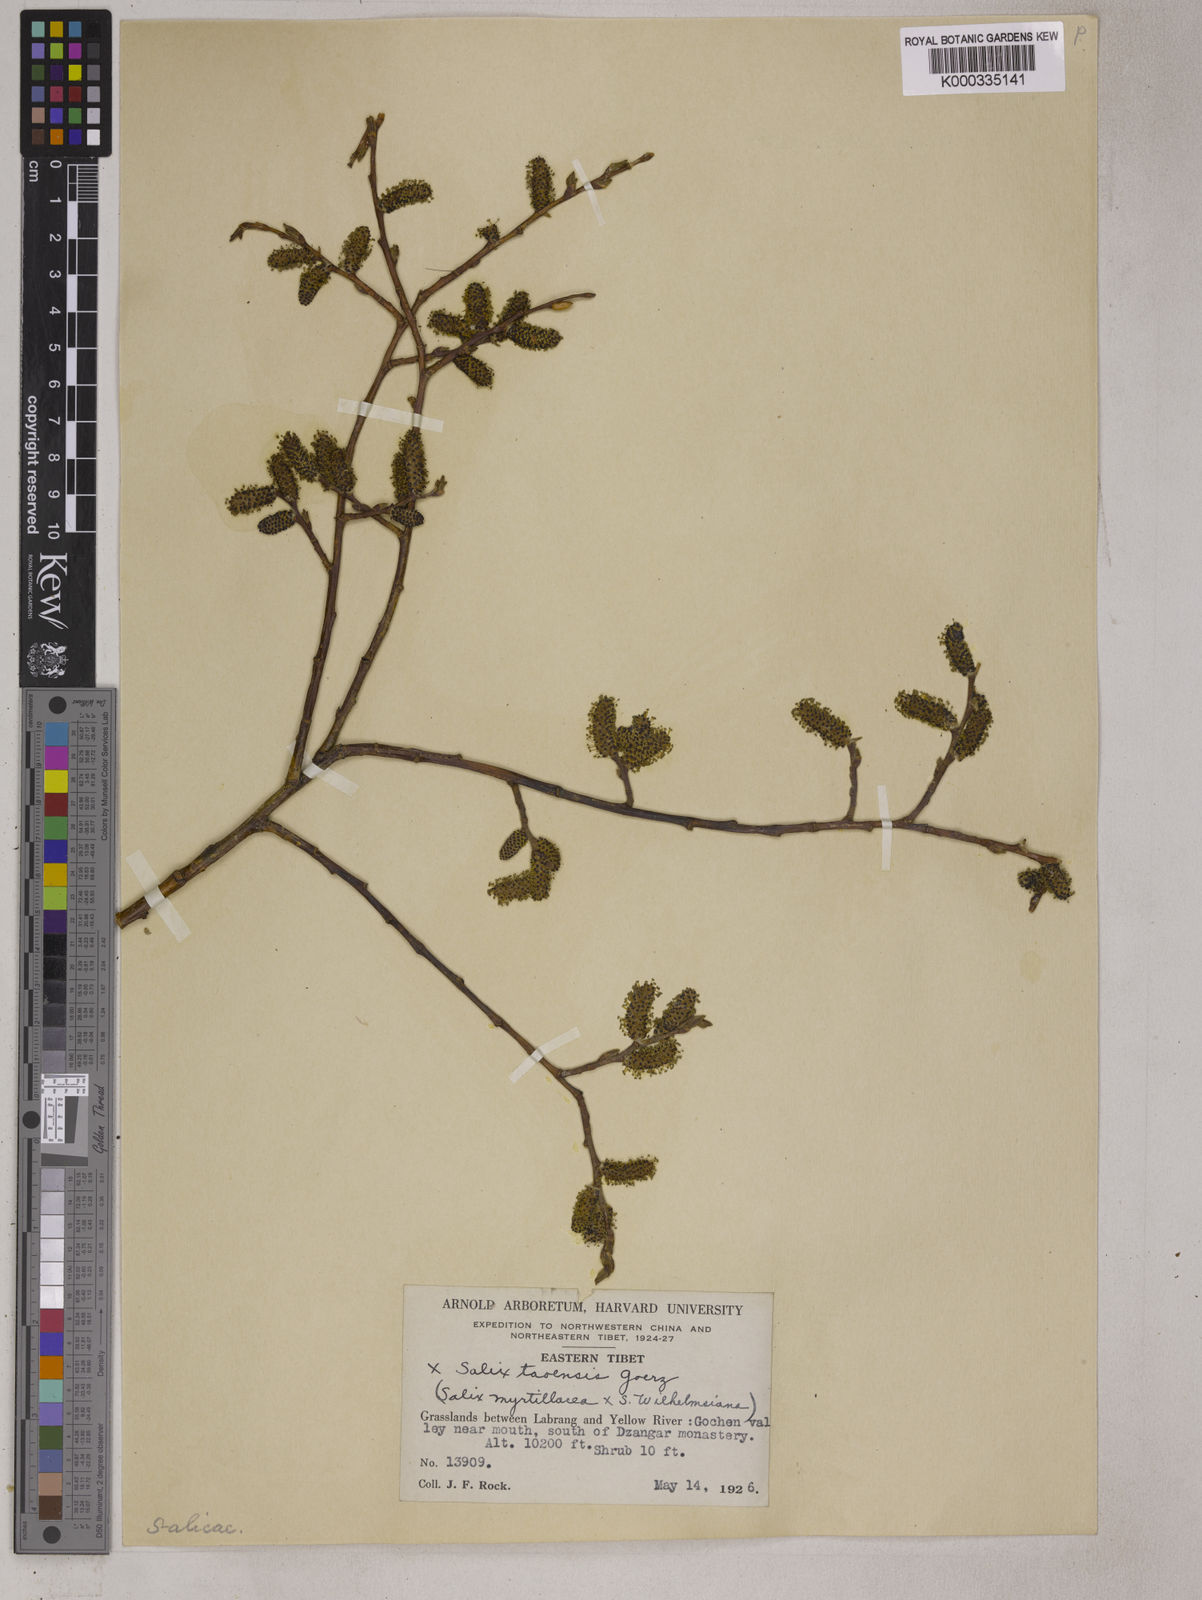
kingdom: Plantae
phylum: Tracheophyta
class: Magnoliopsida
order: Malpighiales
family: Salicaceae
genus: Salix
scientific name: Salix
